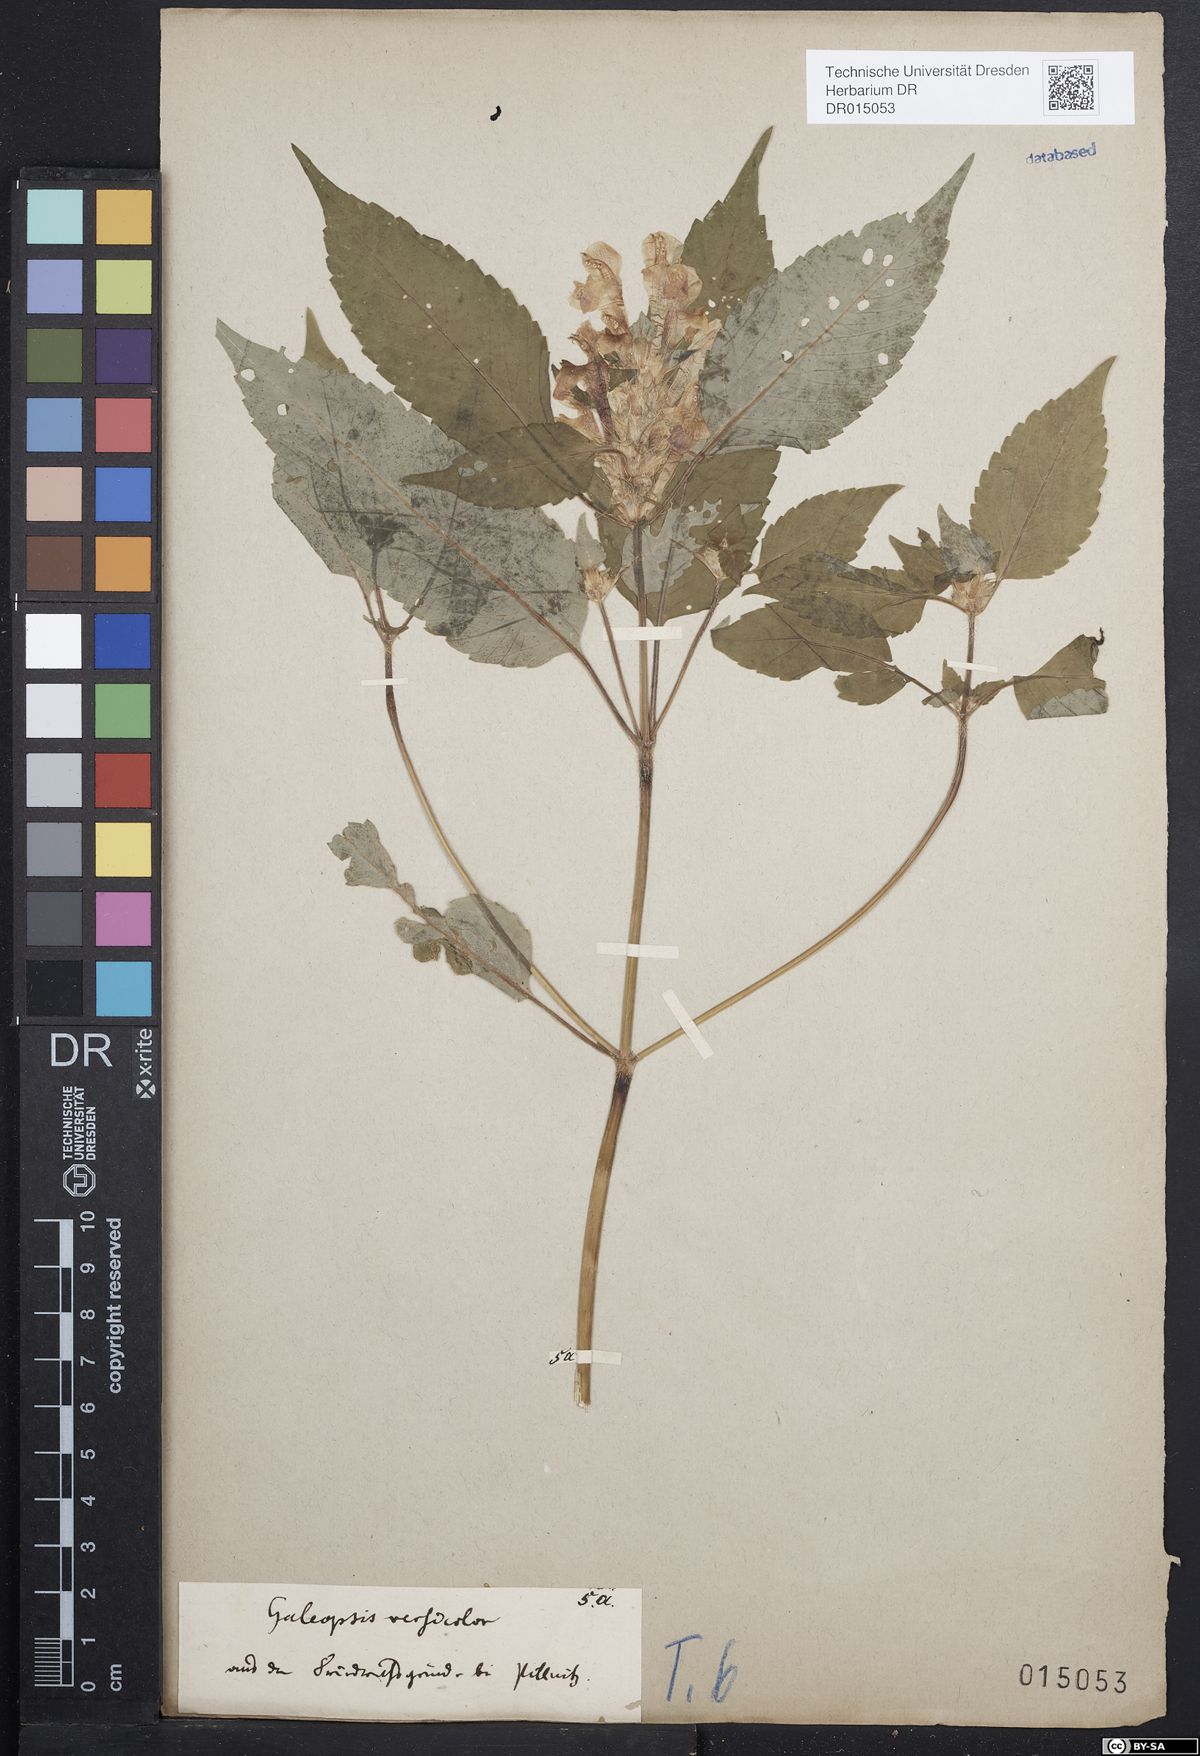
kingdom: Plantae
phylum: Tracheophyta
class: Magnoliopsida
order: Lamiales
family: Lamiaceae
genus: Galeopsis
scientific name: Galeopsis speciosa
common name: Large-flowered hemp-nettle
